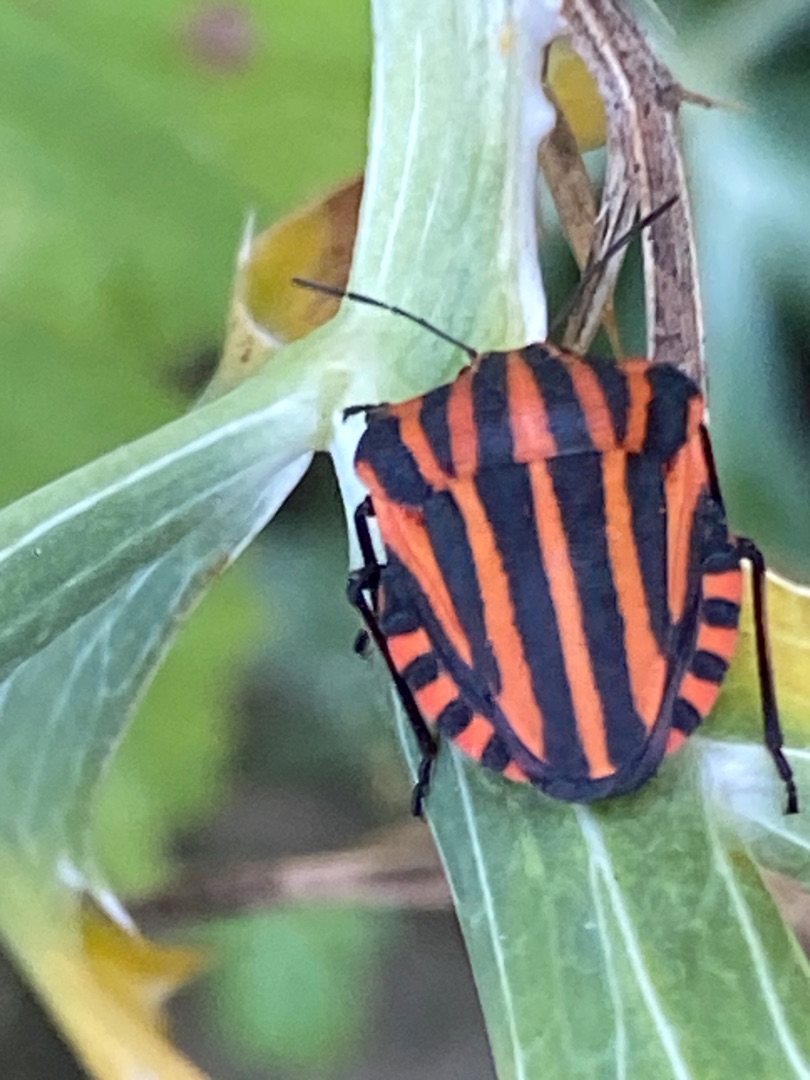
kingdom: Animalia
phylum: Arthropoda
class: Insecta
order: Hemiptera
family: Pentatomidae
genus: Graphosoma
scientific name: Graphosoma italicum
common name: Stribetæge
